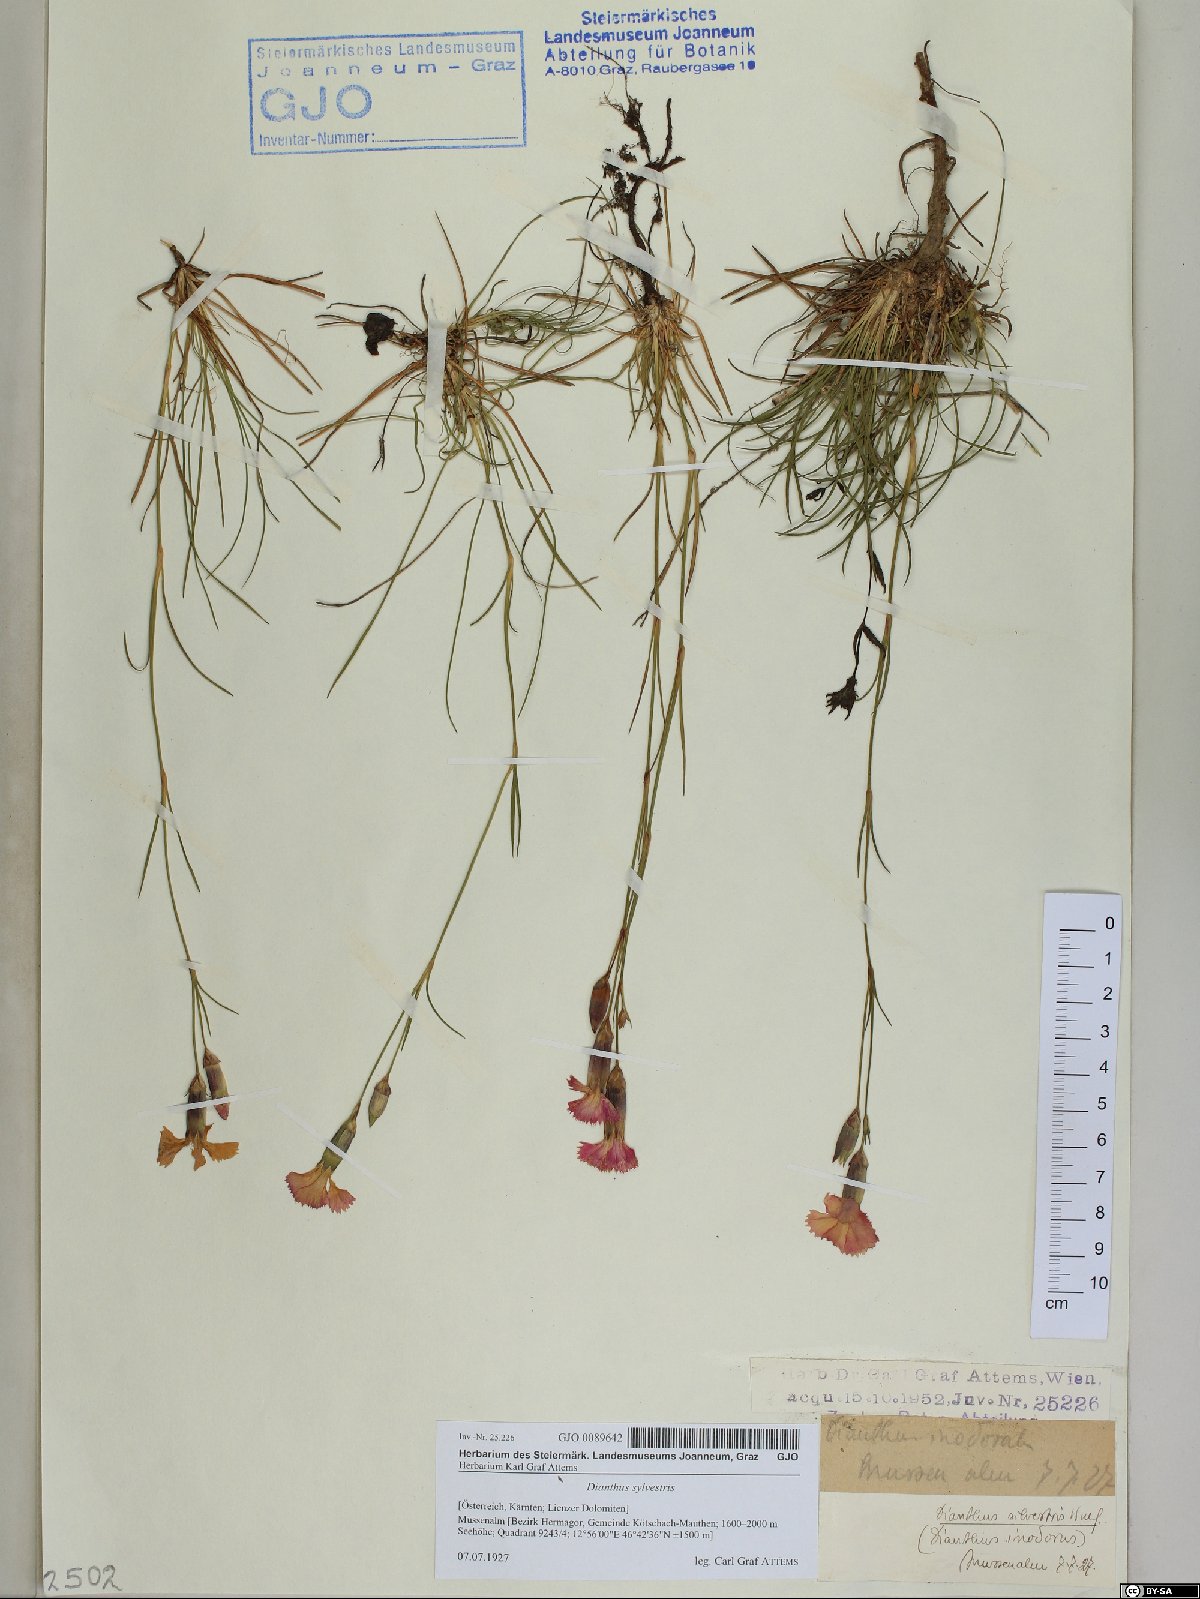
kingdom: Plantae
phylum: Tracheophyta
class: Magnoliopsida
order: Caryophyllales
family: Caryophyllaceae
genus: Dianthus
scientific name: Dianthus sylvestris
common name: Wood pink
